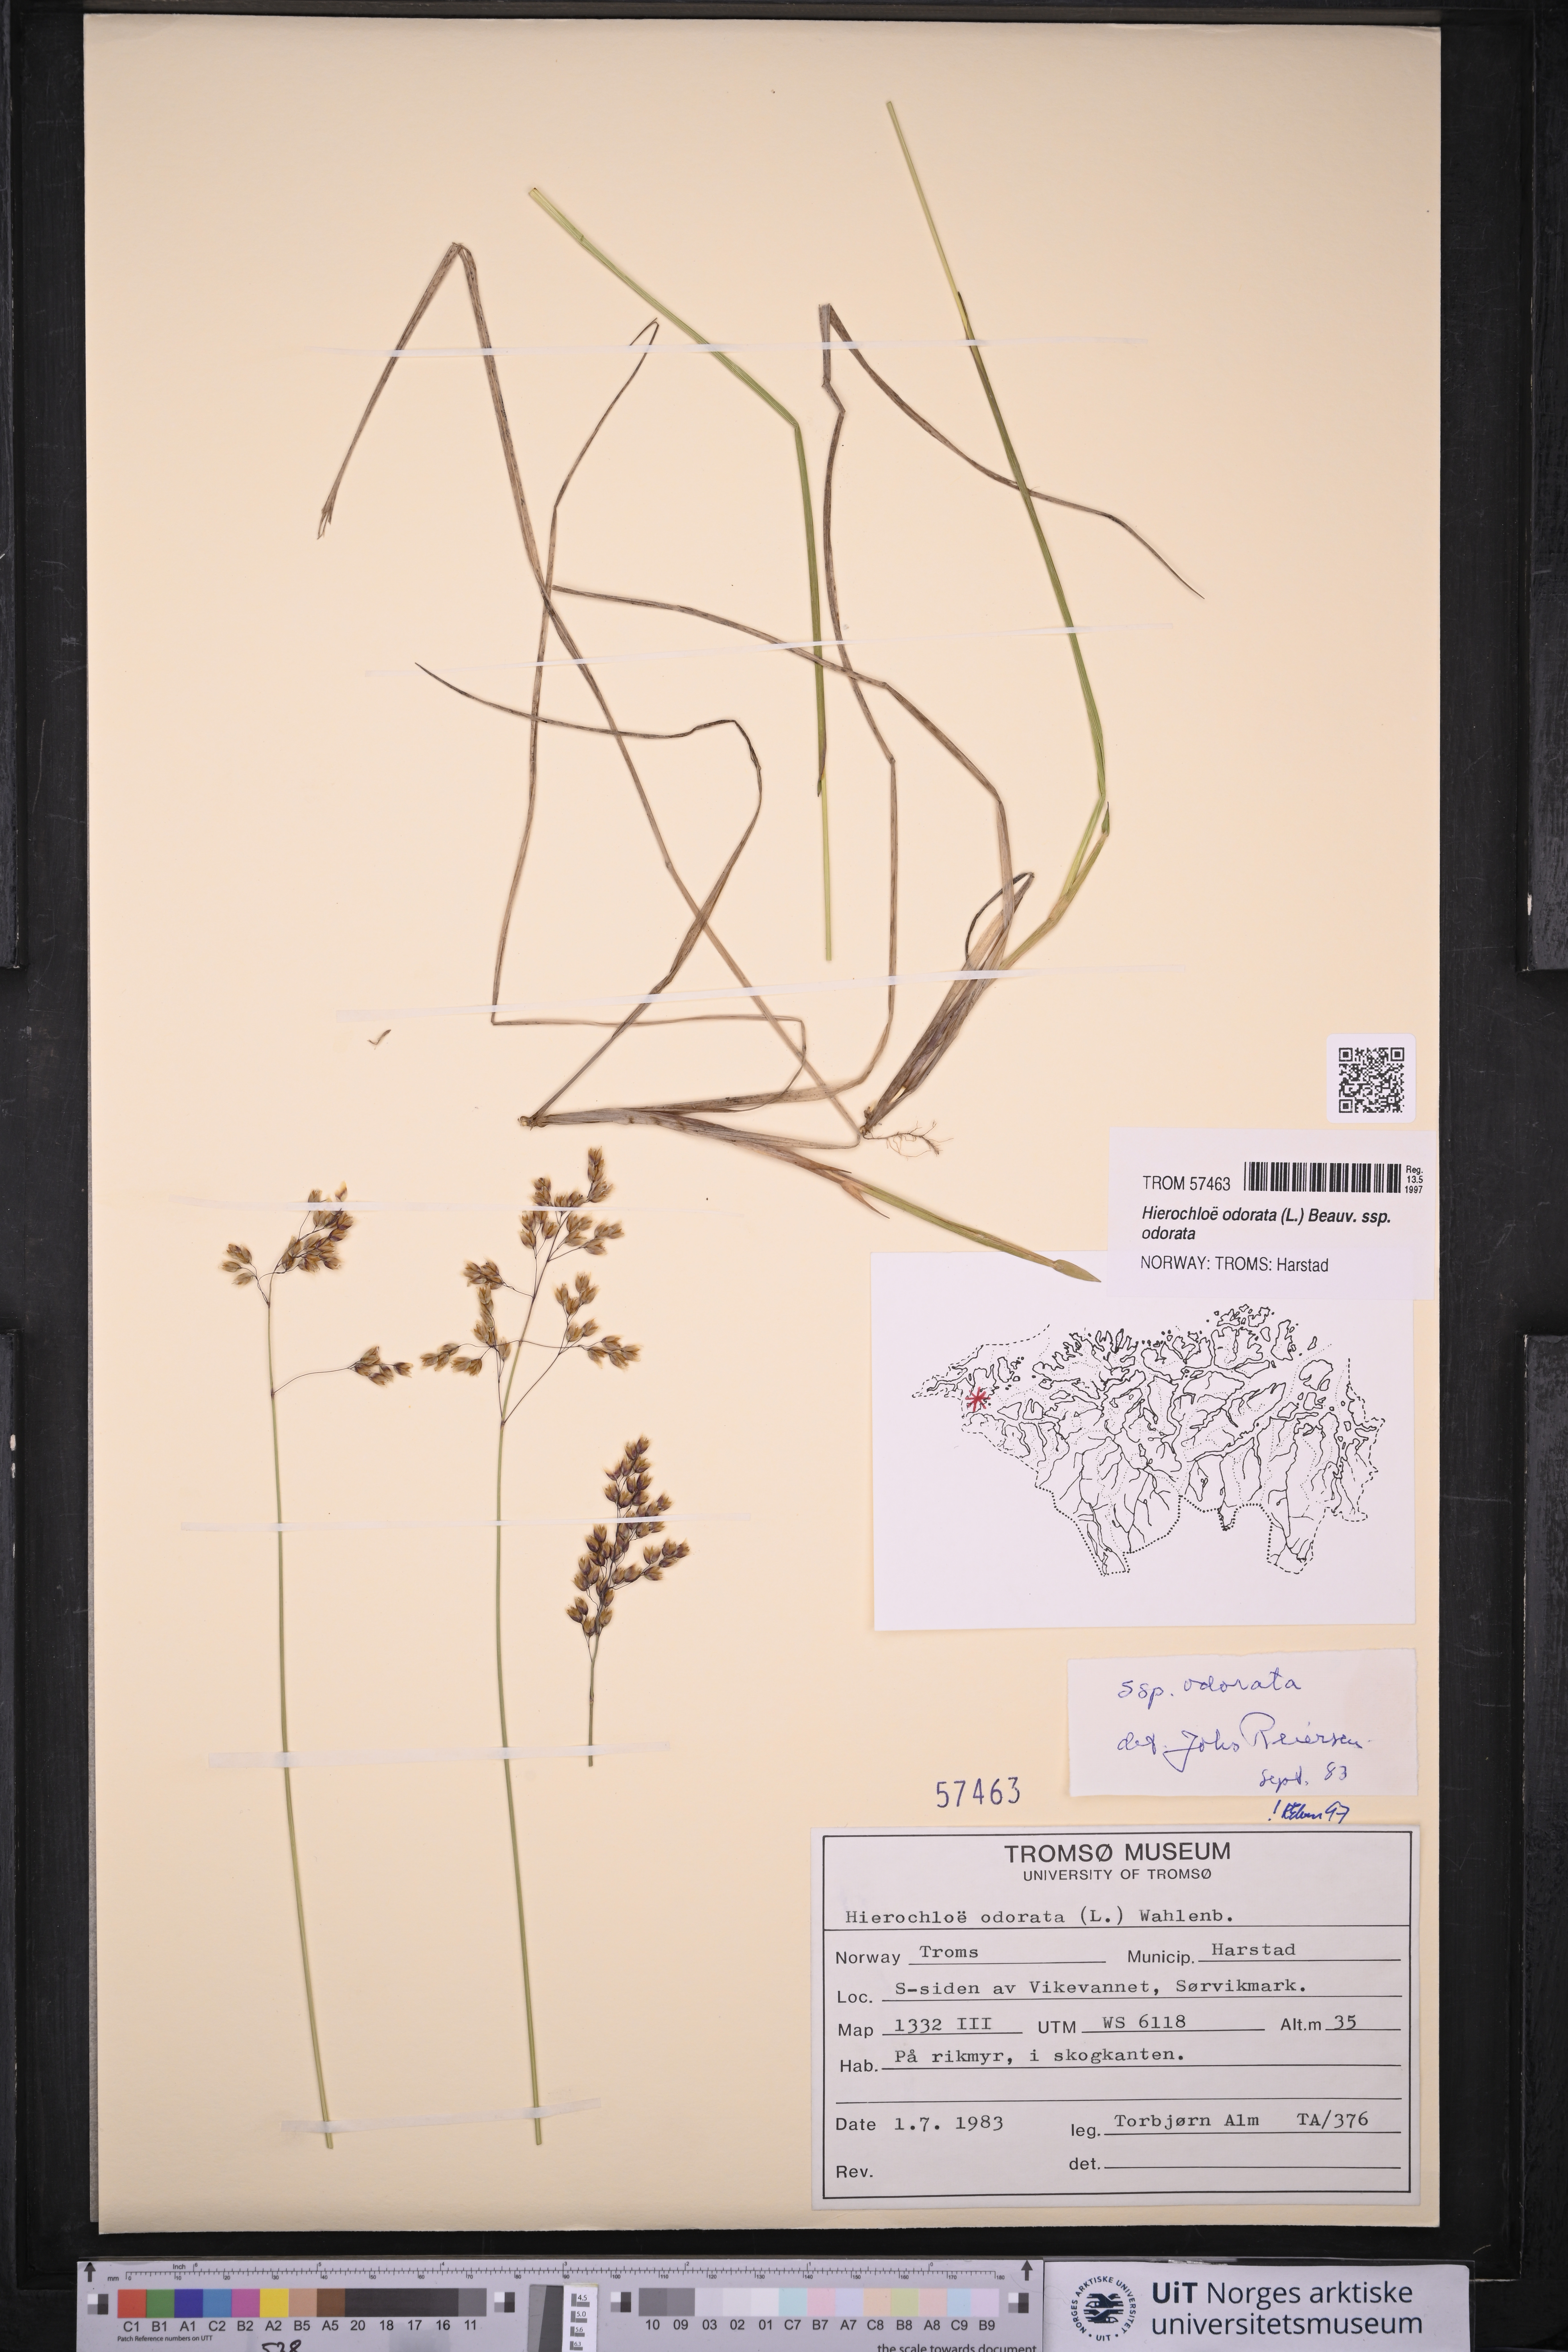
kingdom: Plantae
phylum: Tracheophyta
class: Liliopsida
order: Poales
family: Poaceae
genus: Anthoxanthum
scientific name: Anthoxanthum nitens
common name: Holy grass
